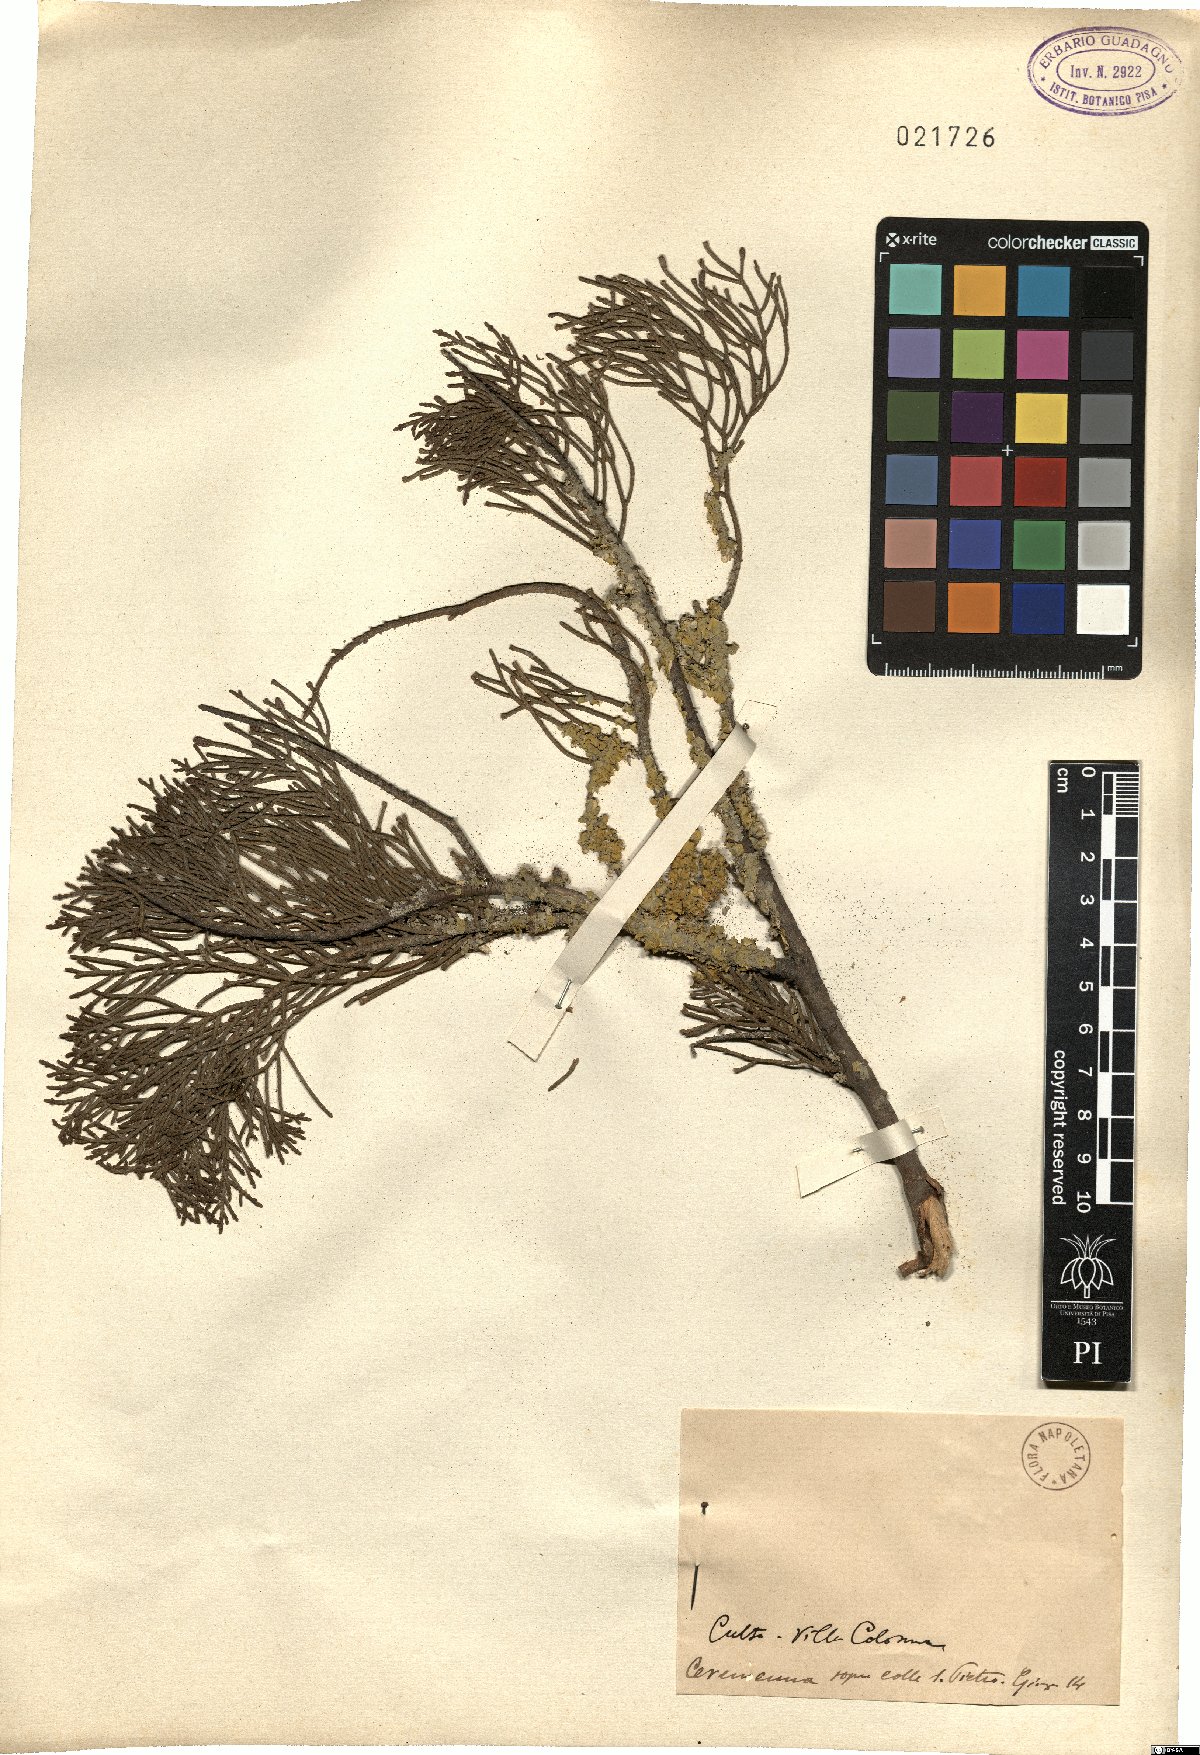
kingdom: Plantae
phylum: Tracheophyta
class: Pinopsida
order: Pinales
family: Cupressaceae
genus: Cupressus
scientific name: Cupressus
